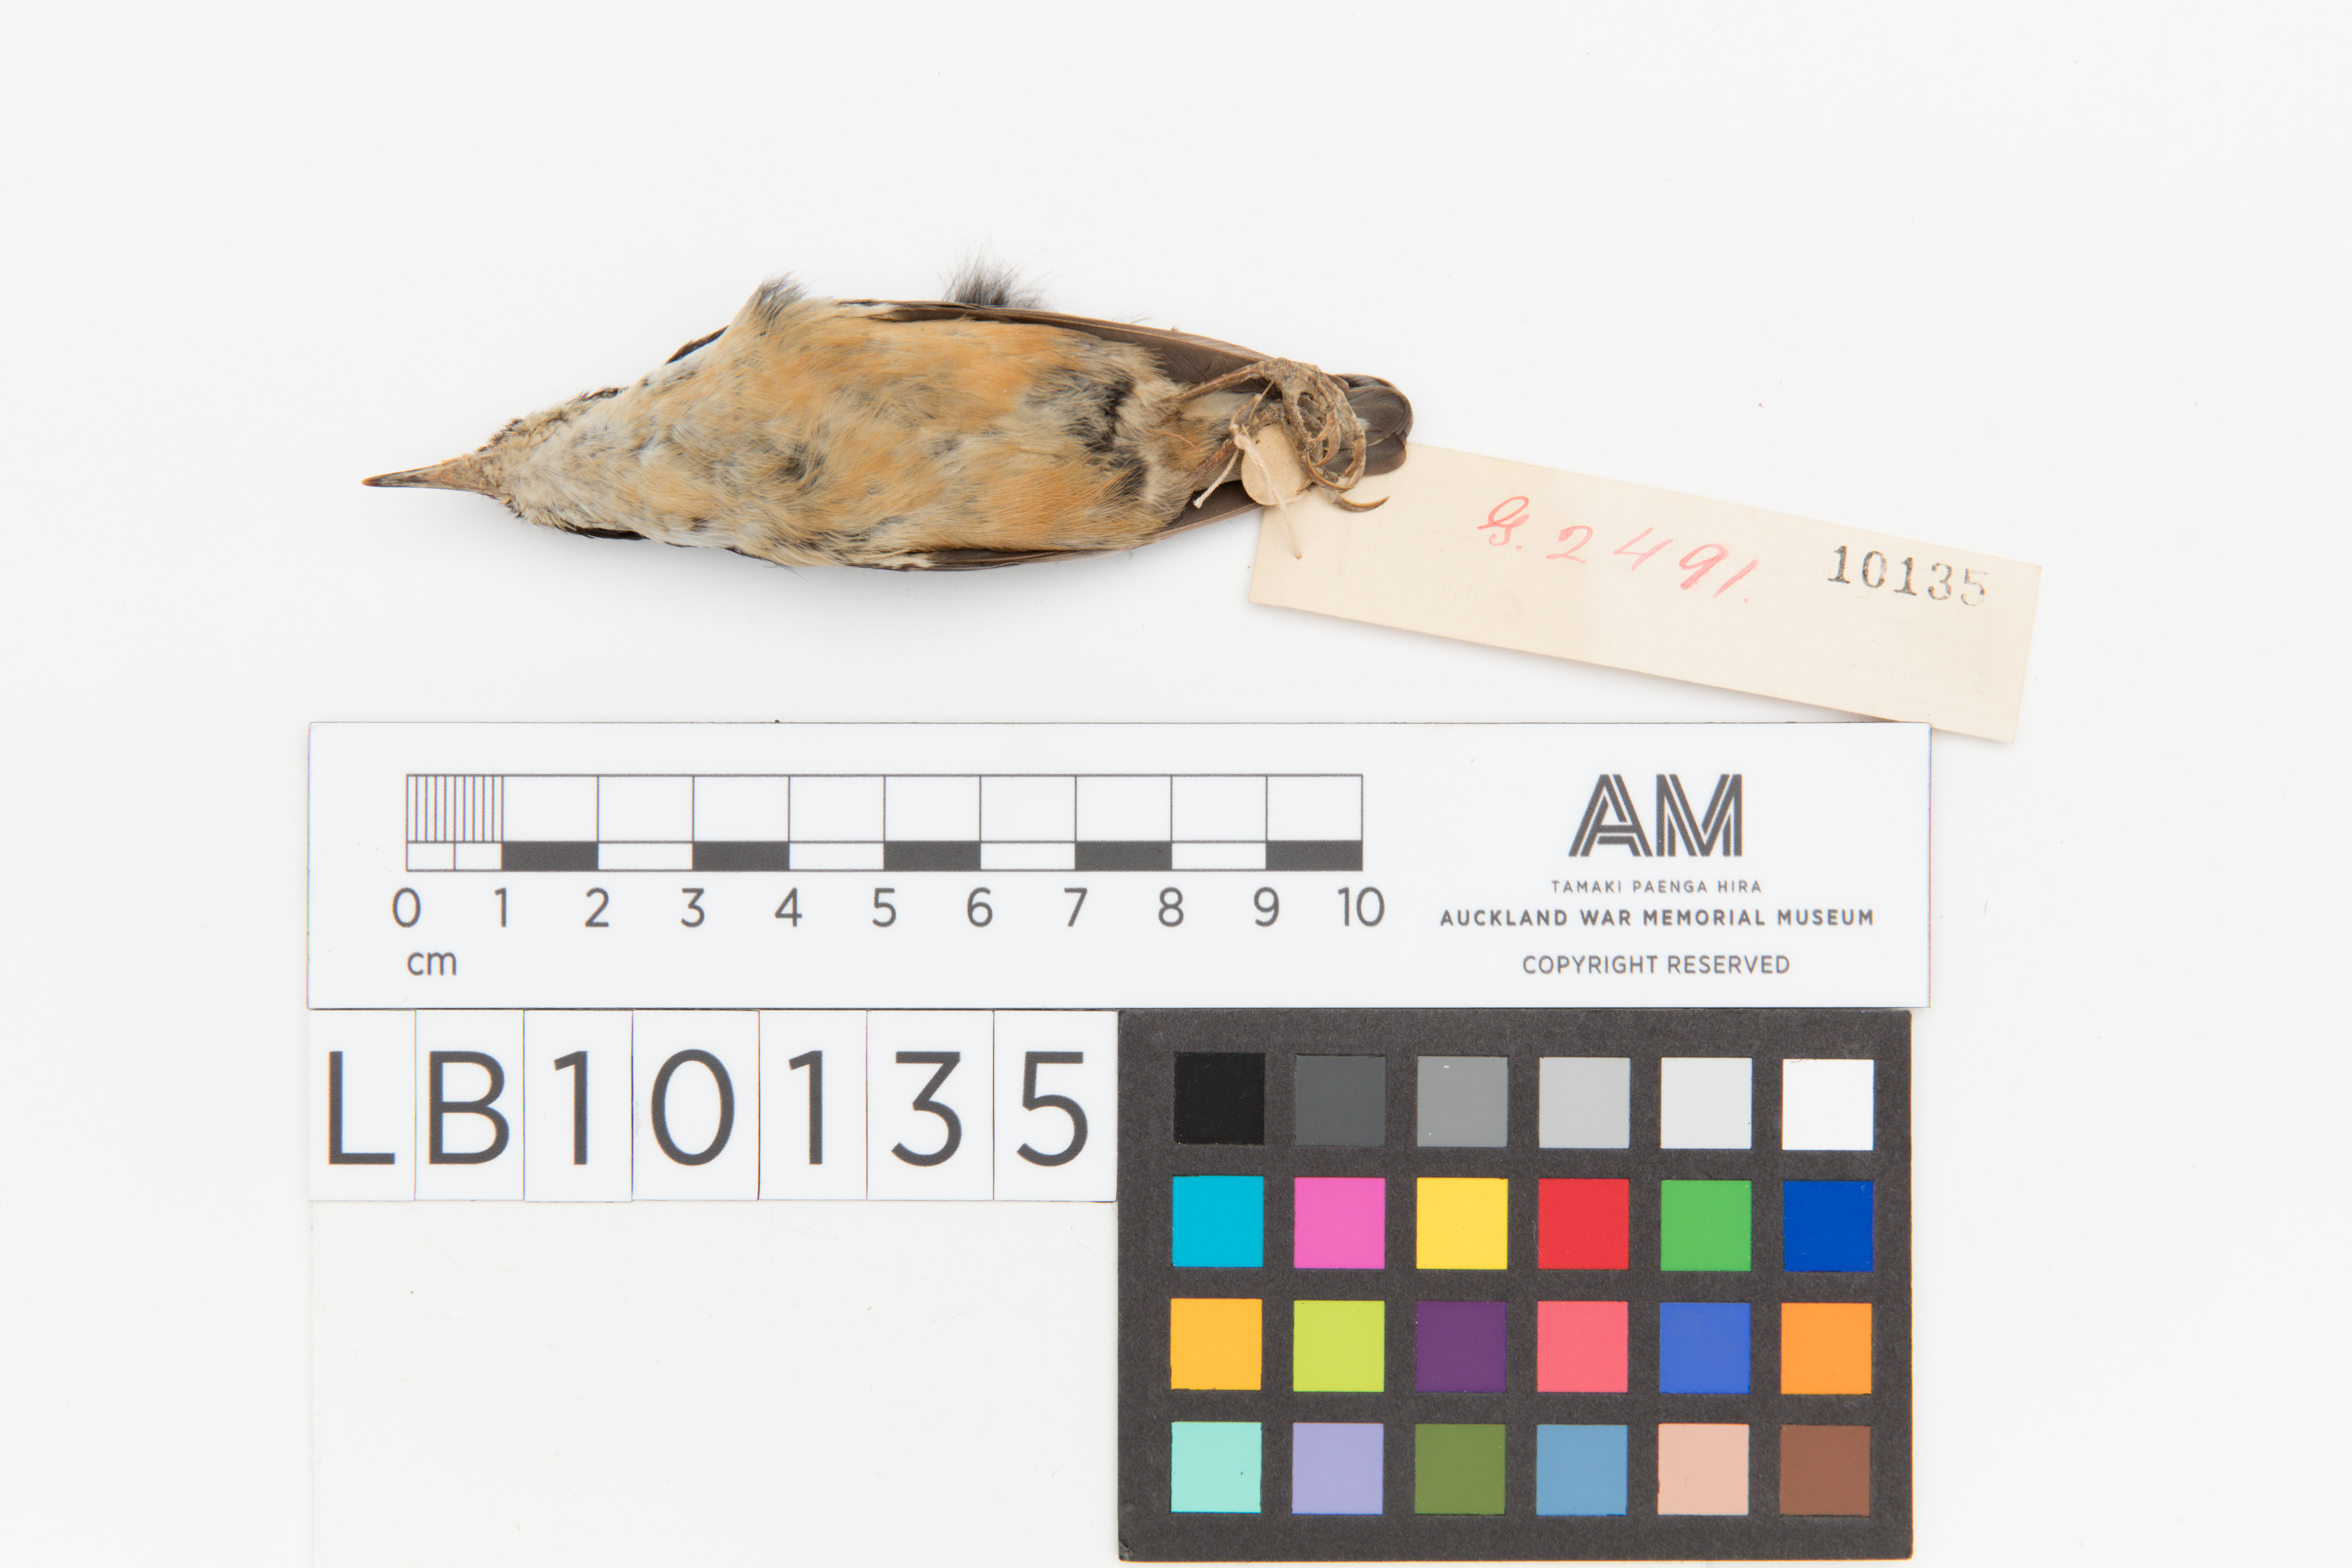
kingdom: Animalia
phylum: Chordata
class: Aves
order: Passeriformes
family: Sittidae
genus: Sitta
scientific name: Sitta canadensis
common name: Red-breasted nuthatch
